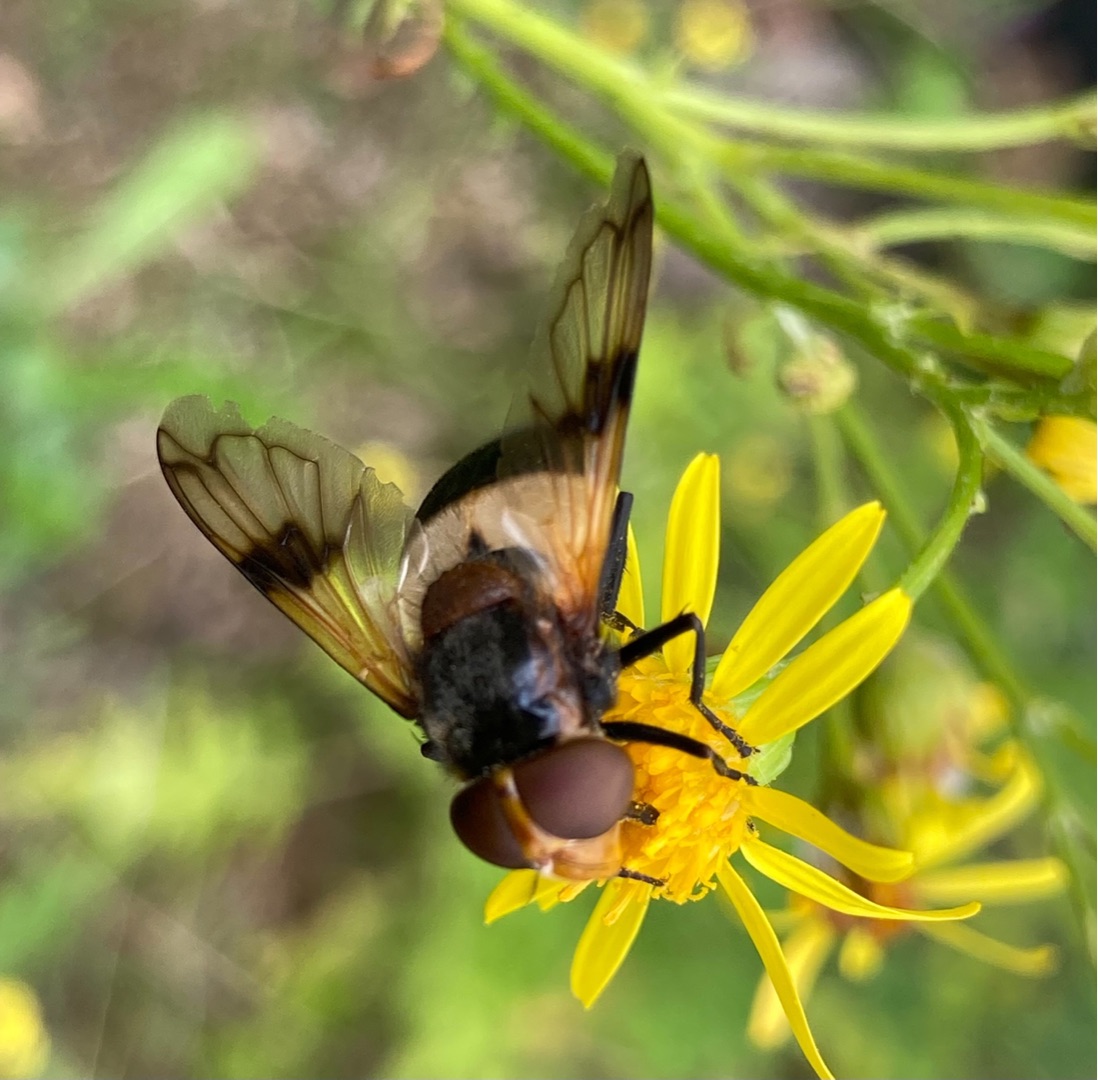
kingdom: Animalia
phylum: Arthropoda
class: Insecta
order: Diptera
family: Syrphidae
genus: Volucella
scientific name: Volucella pellucens
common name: Hvidbåndet humlesvirreflue
